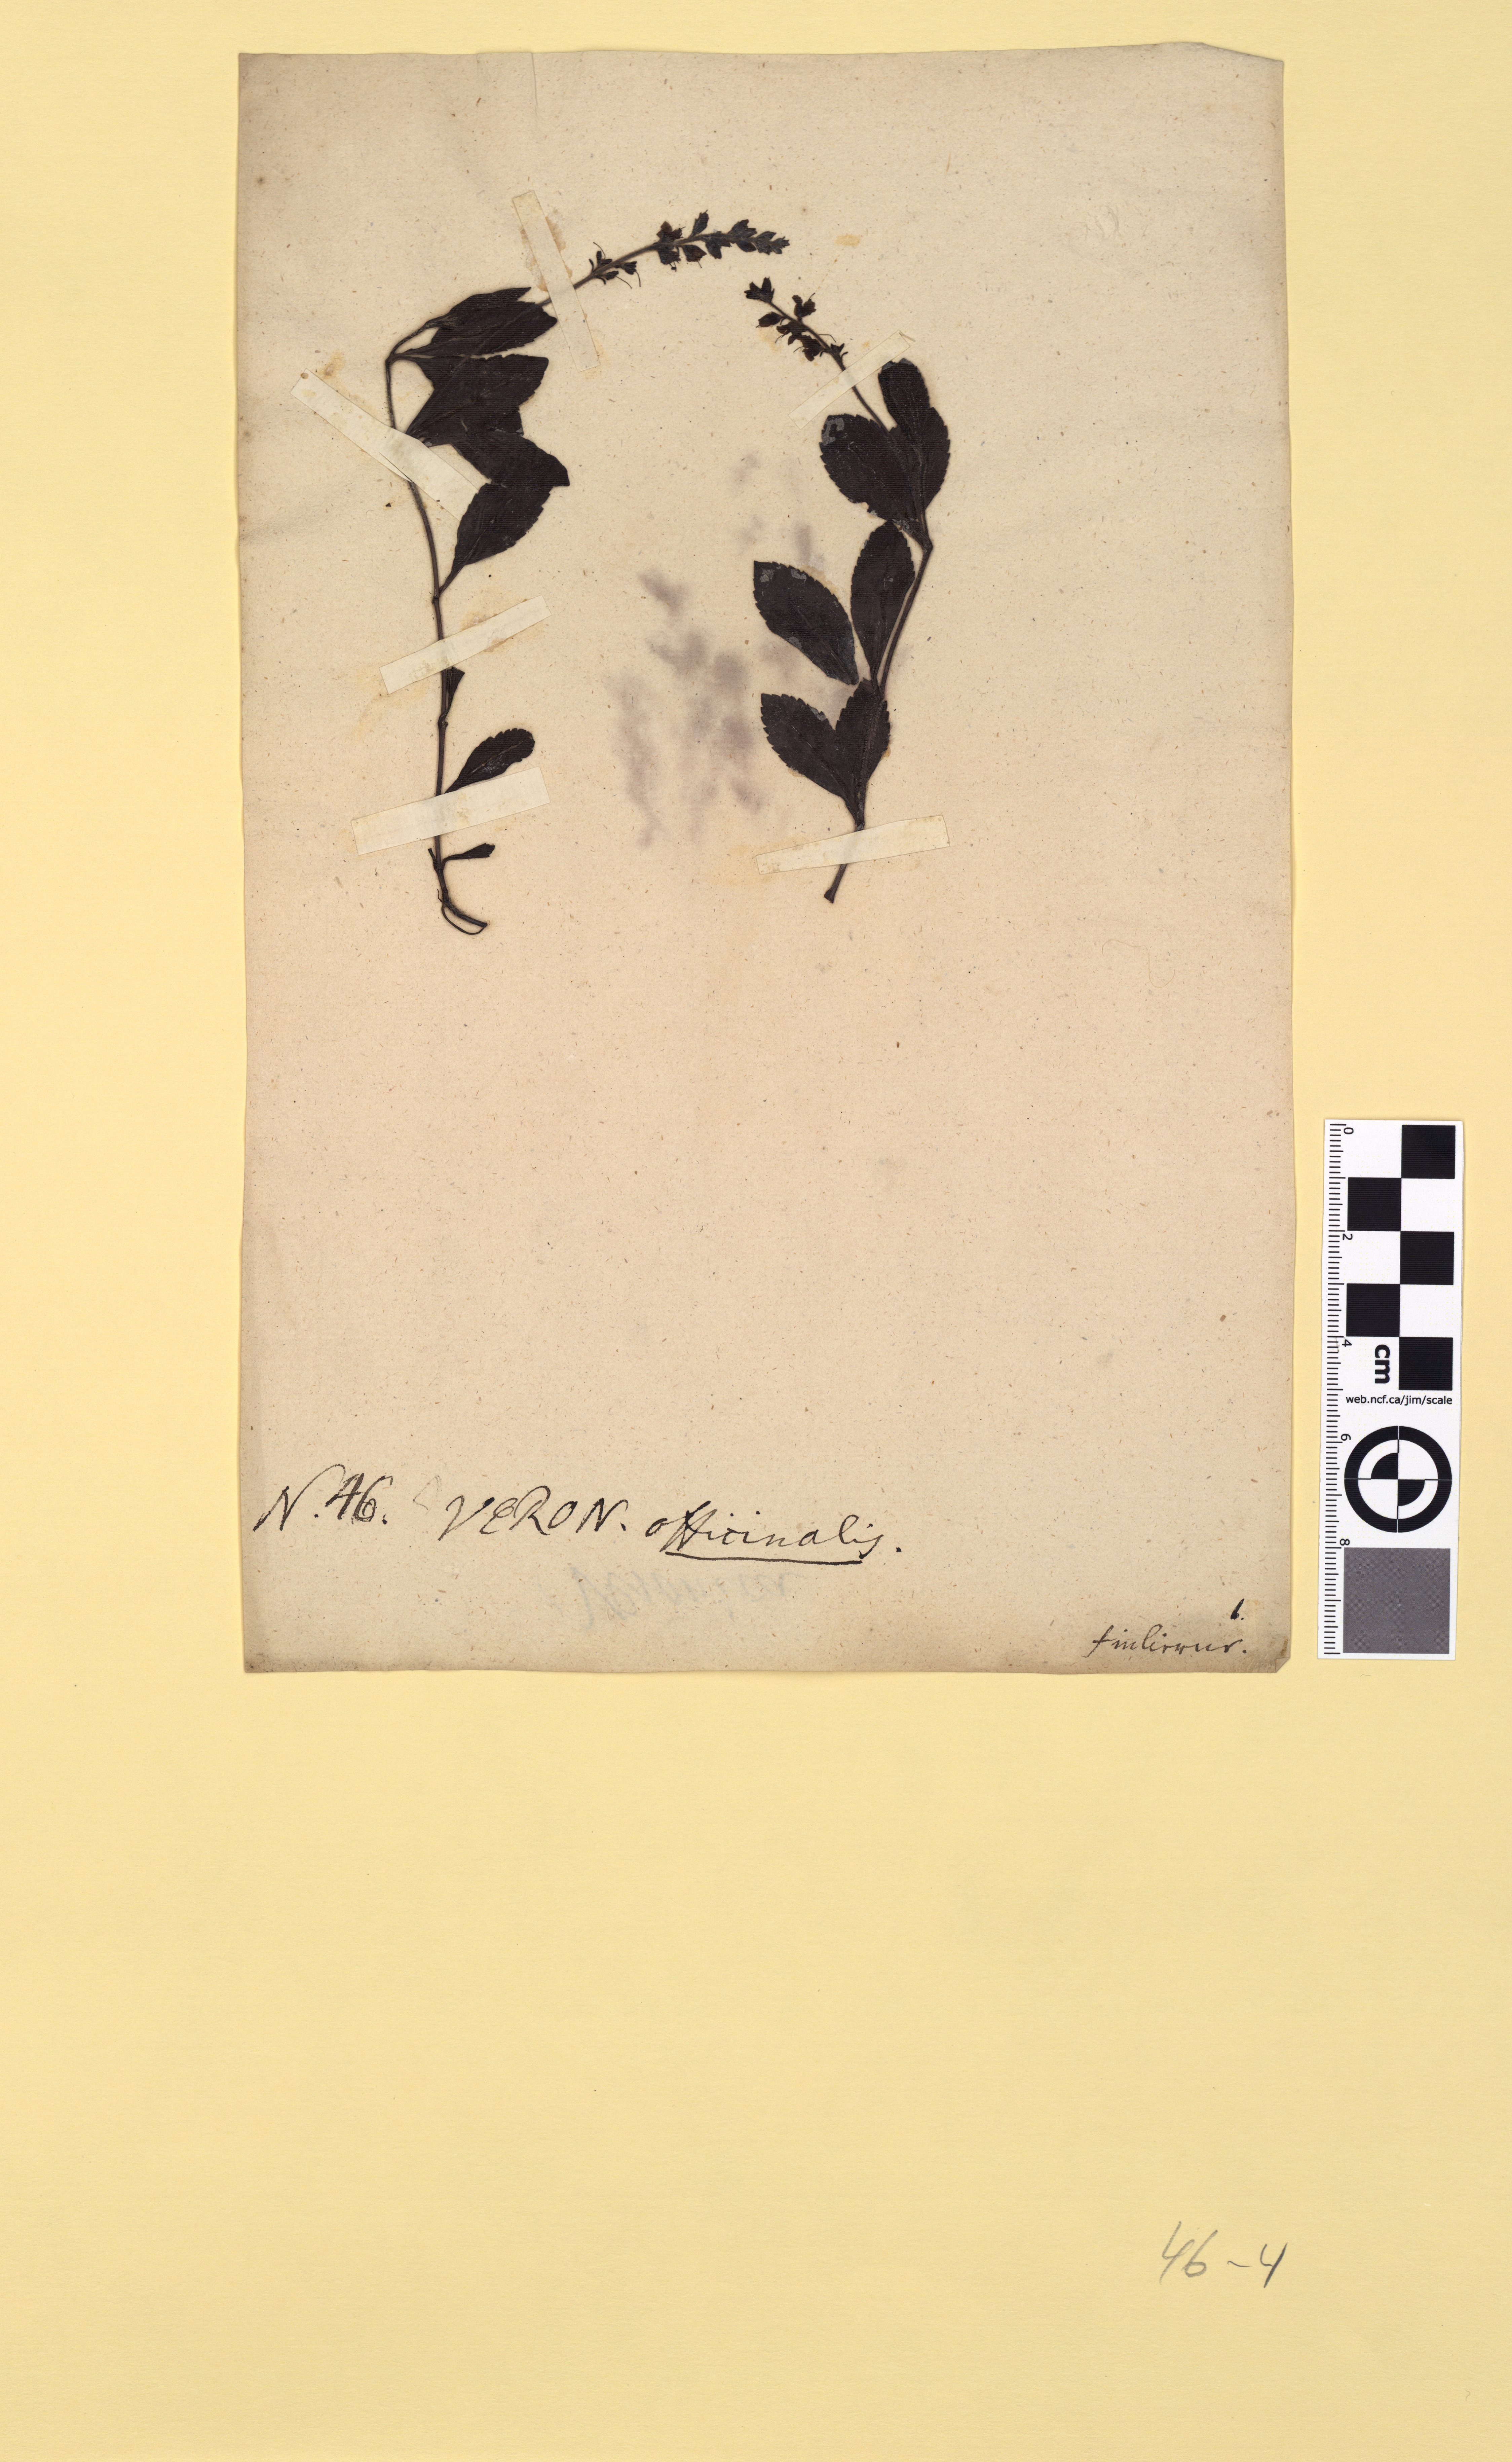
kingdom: Plantae
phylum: Tracheophyta
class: Magnoliopsida
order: Lamiales
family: Plantaginaceae
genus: Veronica
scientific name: Veronica officinalis
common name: Common speedwell
